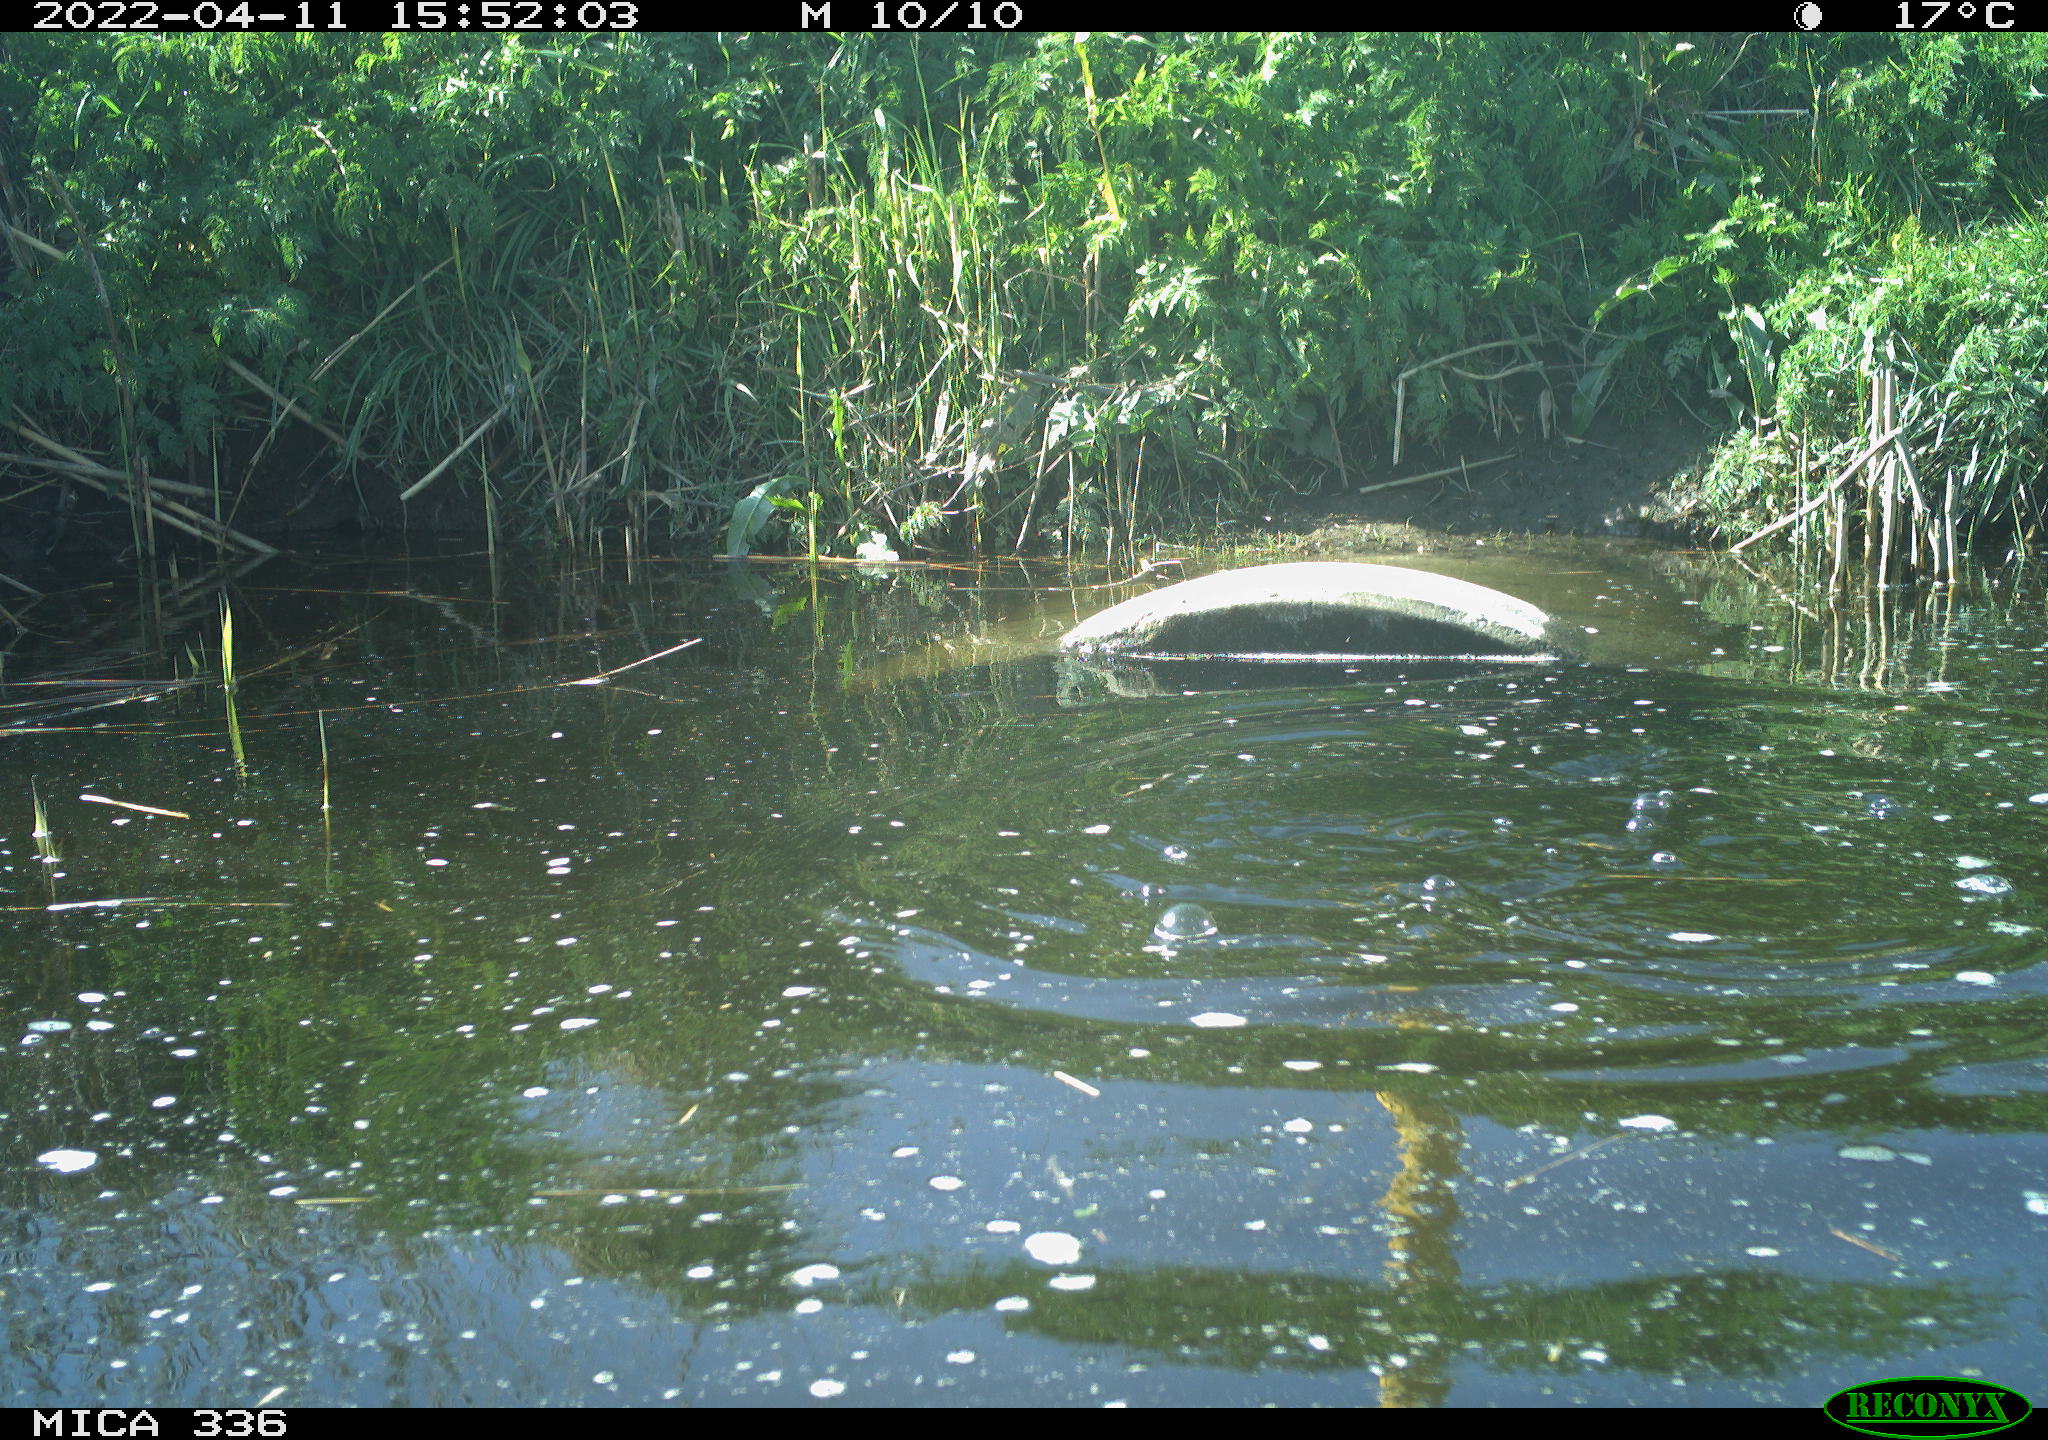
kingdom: Animalia
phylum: Chordata
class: Aves
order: Podicipediformes
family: Podicipedidae
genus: Podiceps
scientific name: Podiceps cristatus
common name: Great crested grebe
